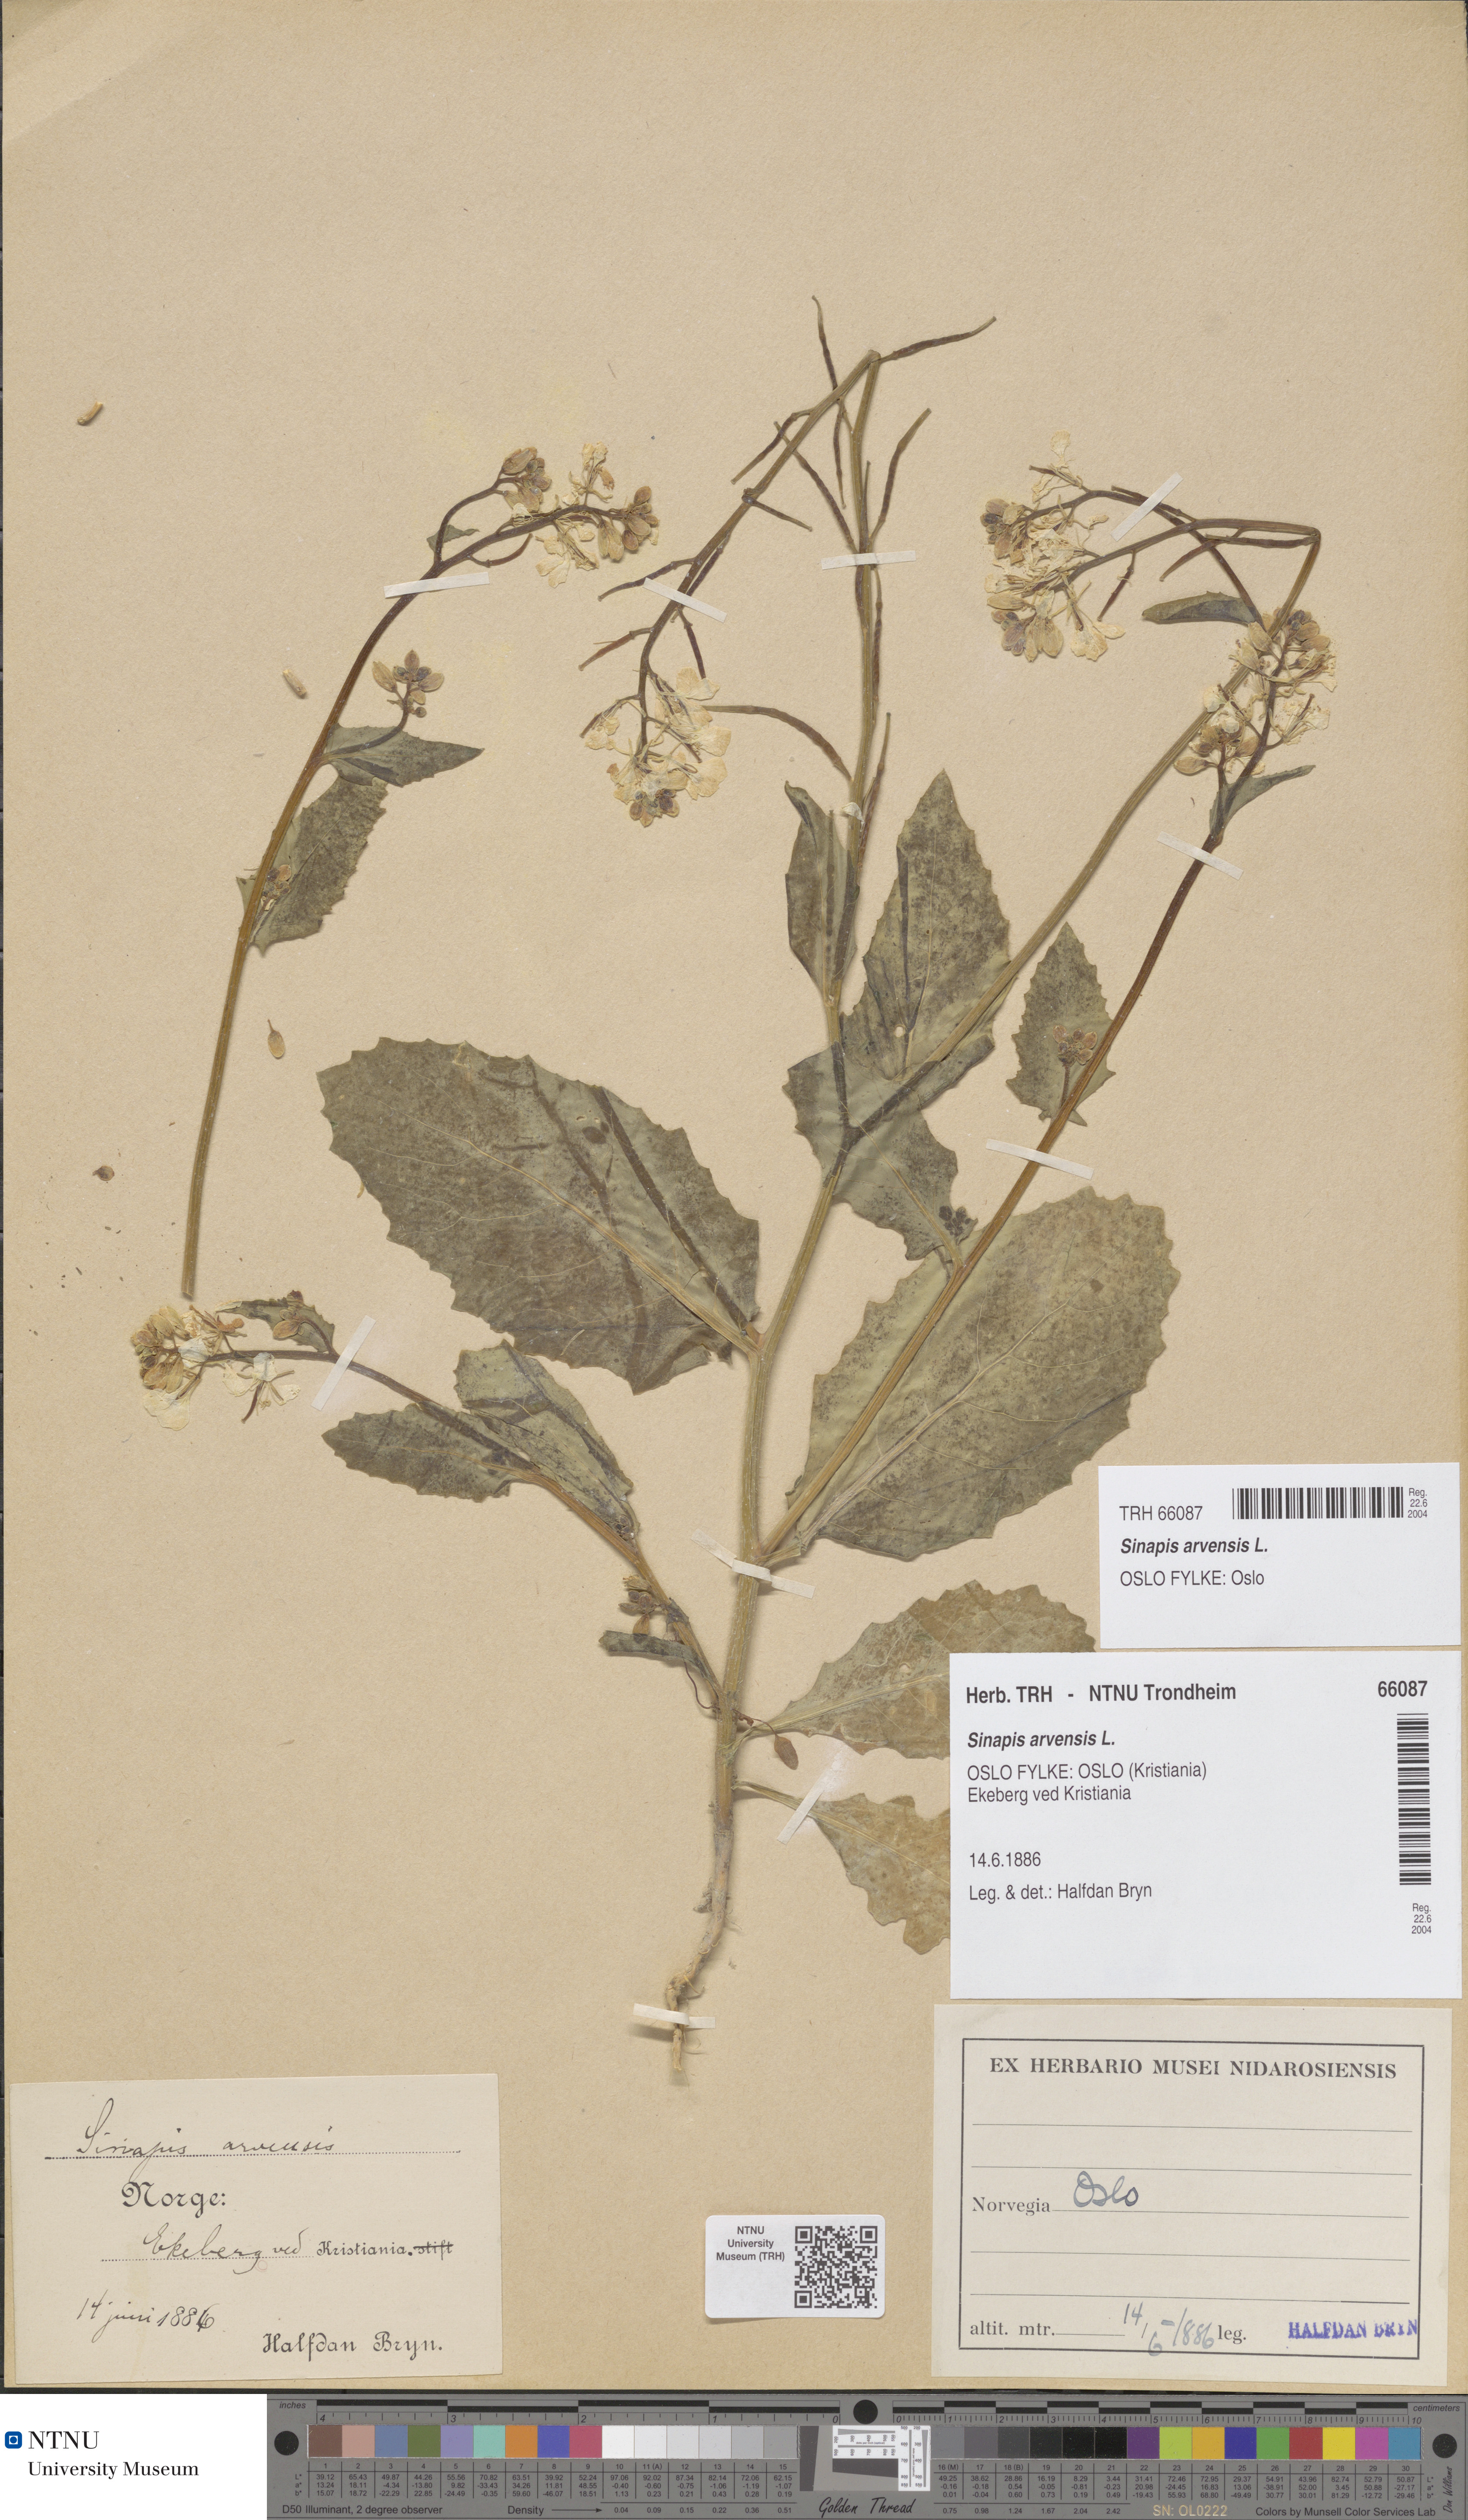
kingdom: Plantae
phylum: Tracheophyta
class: Magnoliopsida
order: Brassicales
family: Brassicaceae
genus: Sinapis
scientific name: Sinapis arvensis
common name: Charlock
